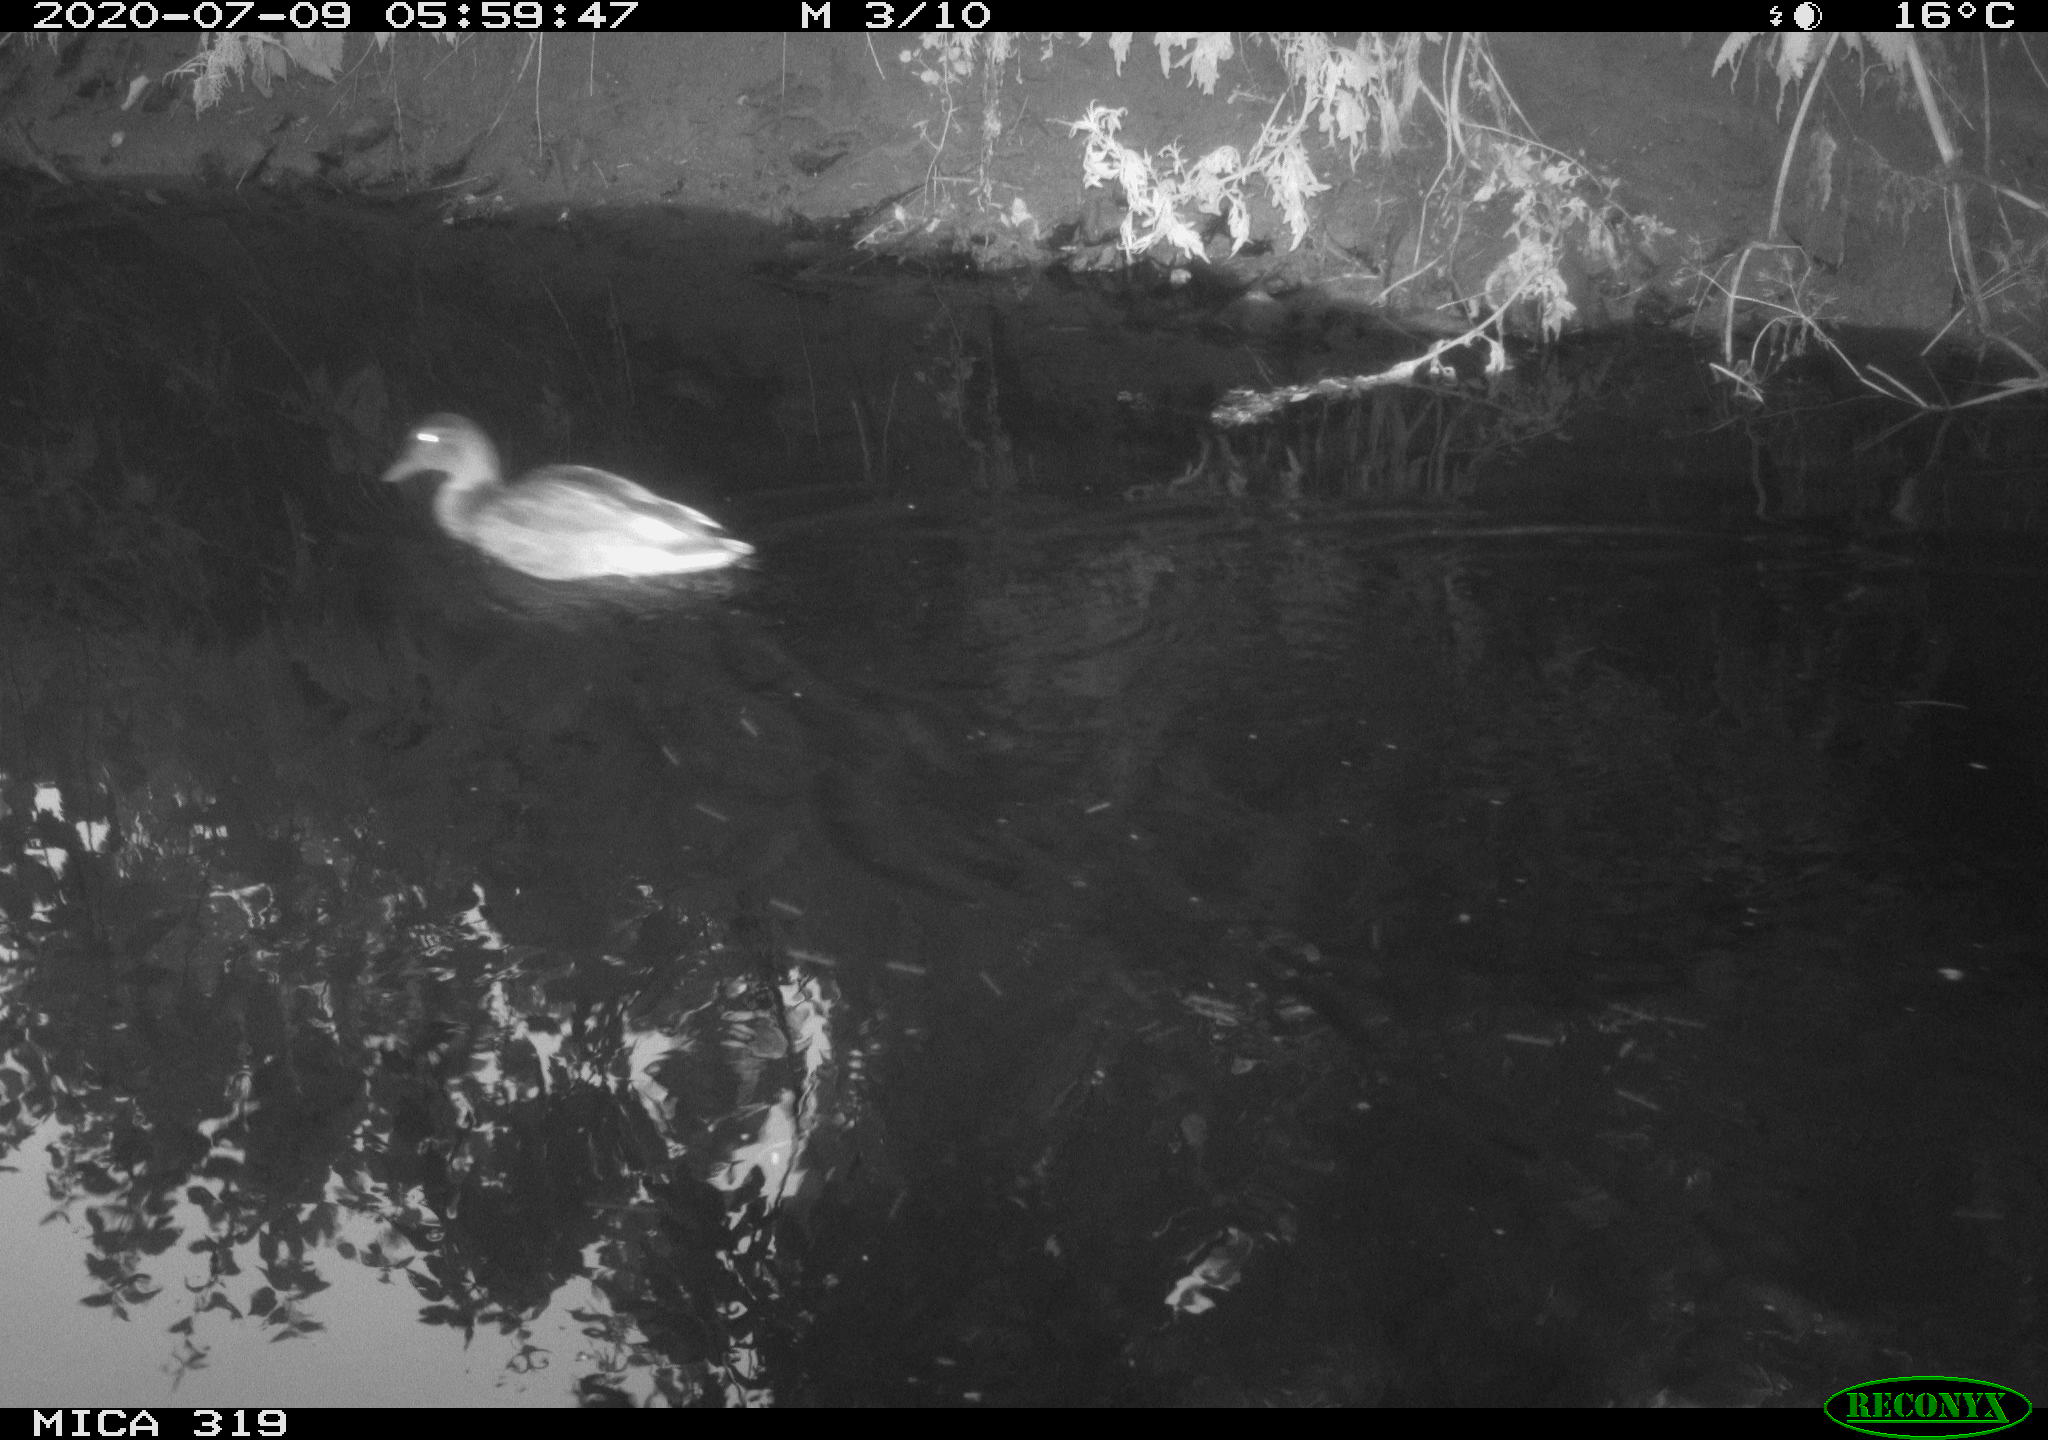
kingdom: Animalia
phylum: Chordata
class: Aves
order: Anseriformes
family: Anatidae
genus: Anas
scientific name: Anas platyrhynchos
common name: Mallard
